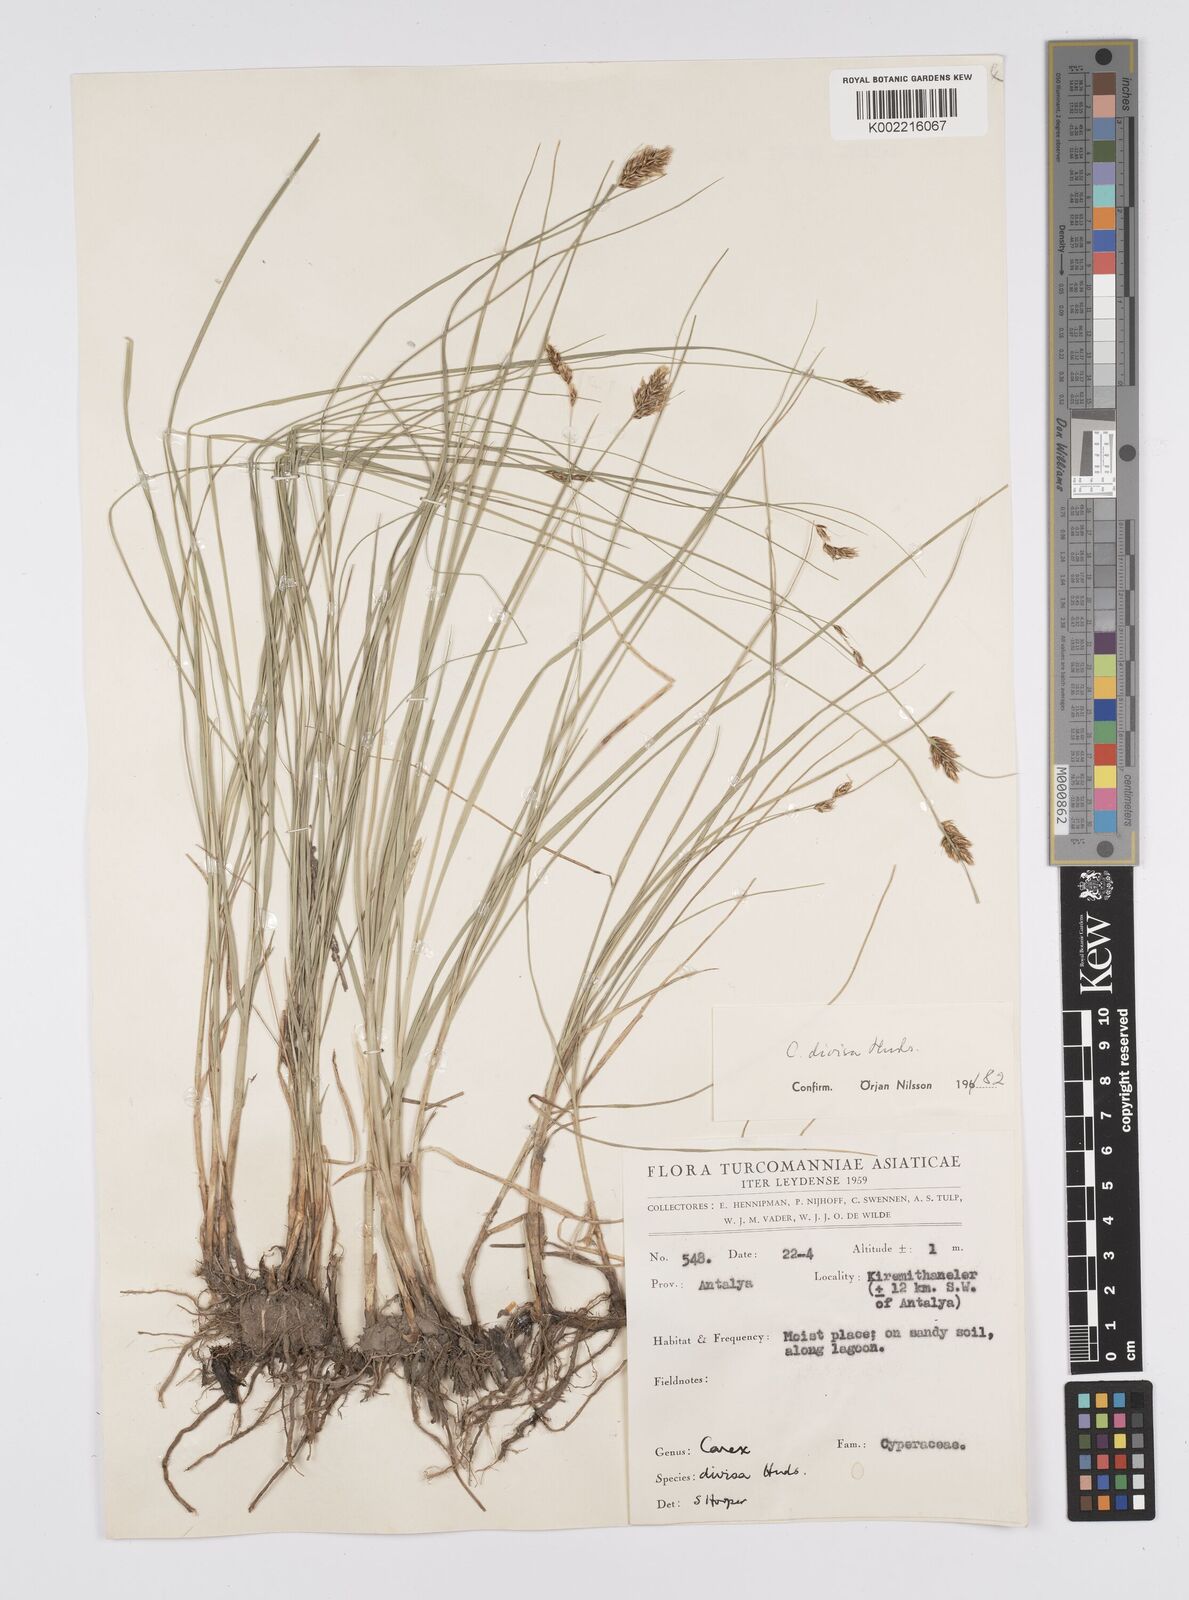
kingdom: Plantae
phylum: Tracheophyta
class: Liliopsida
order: Poales
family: Cyperaceae
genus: Carex
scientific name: Carex divisa
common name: Divided sedge
